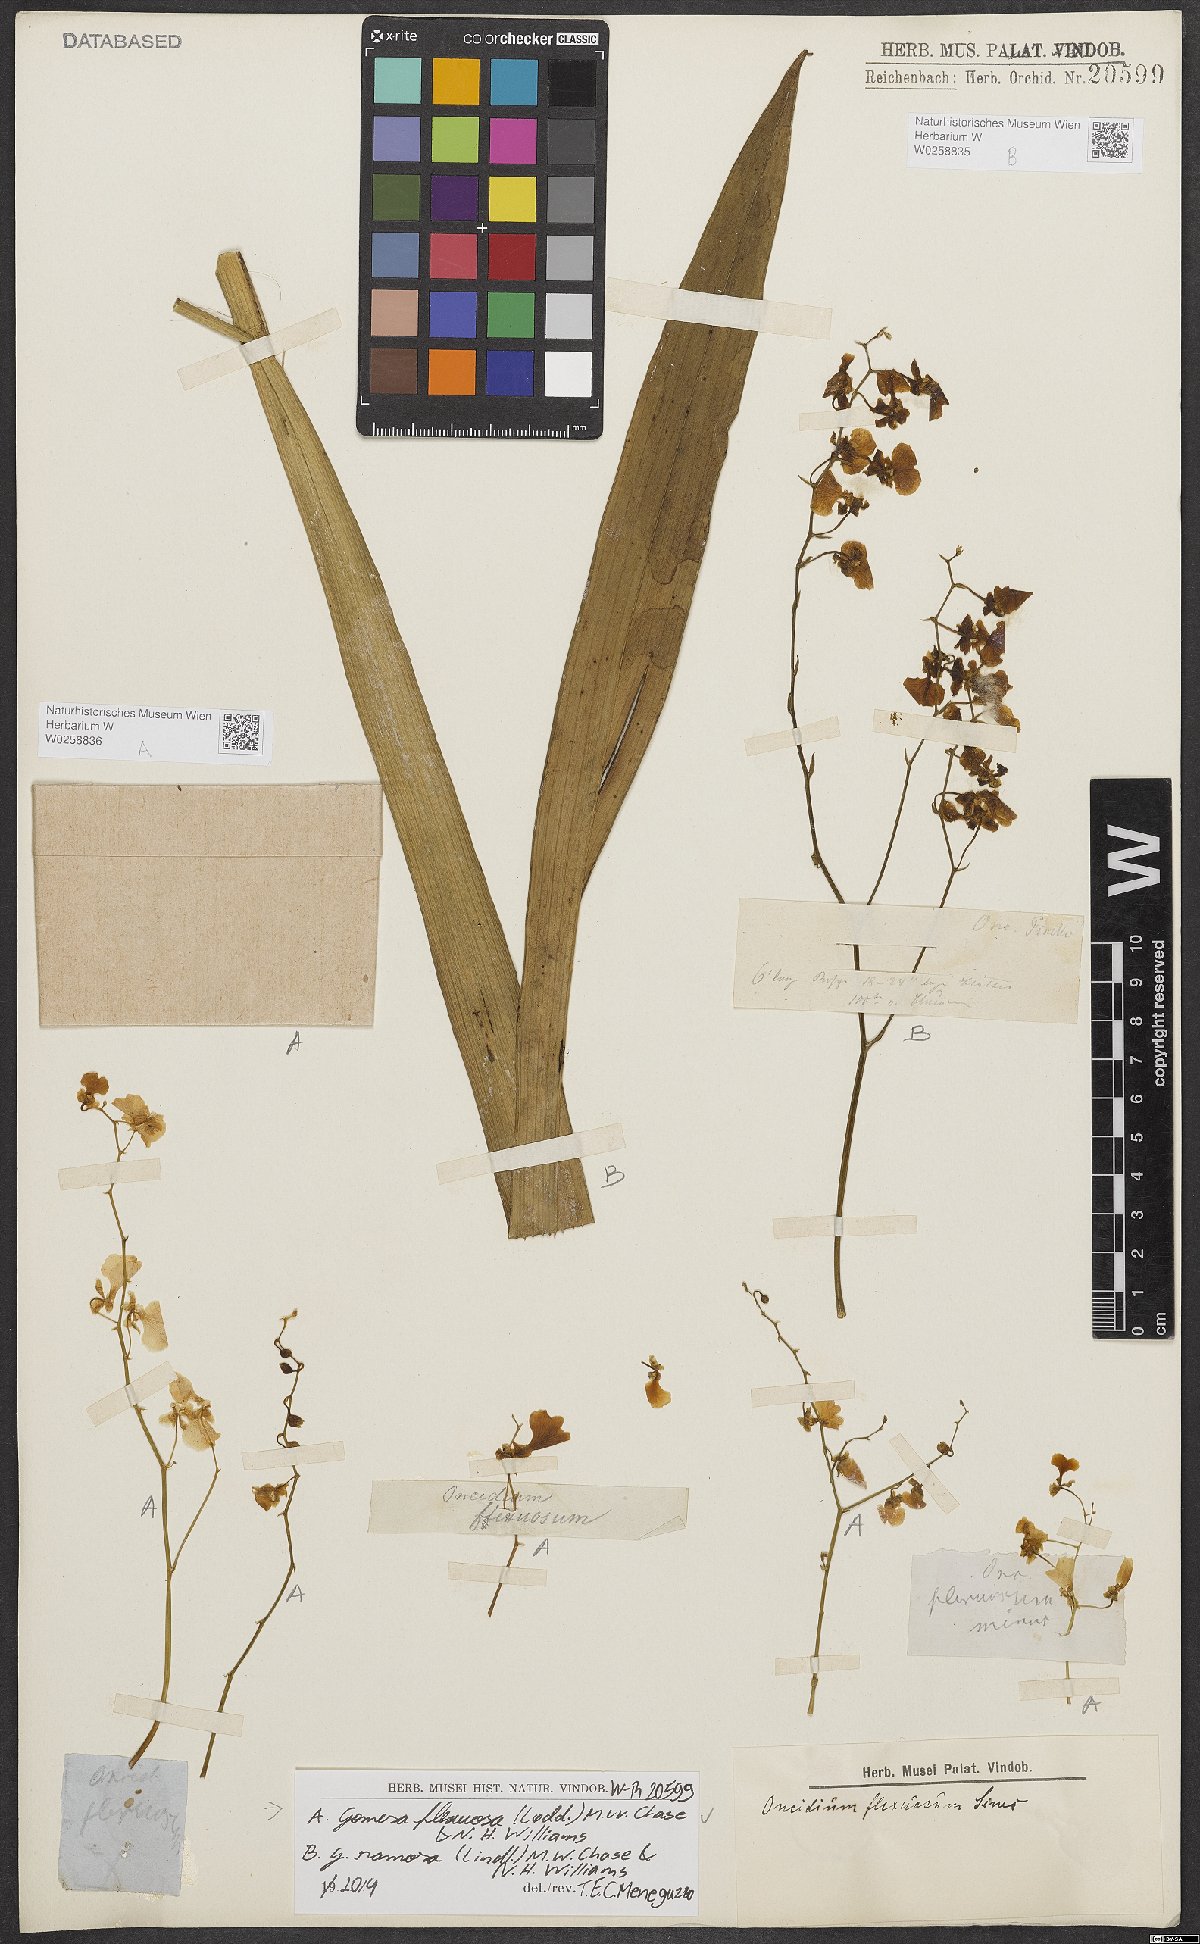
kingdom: Plantae
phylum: Tracheophyta
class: Liliopsida
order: Asparagales
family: Orchidaceae
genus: Gomesa
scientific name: Gomesa flexuosa
